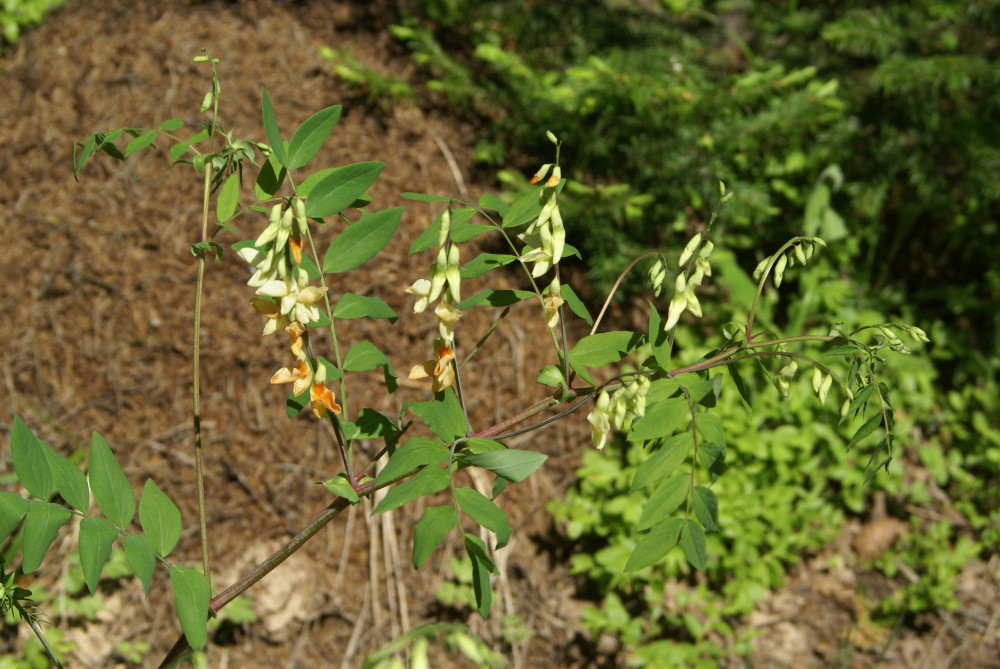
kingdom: Plantae
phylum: Tracheophyta
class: Magnoliopsida
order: Fabales
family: Fabaceae
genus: Lathyrus
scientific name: Lathyrus gmelinii
